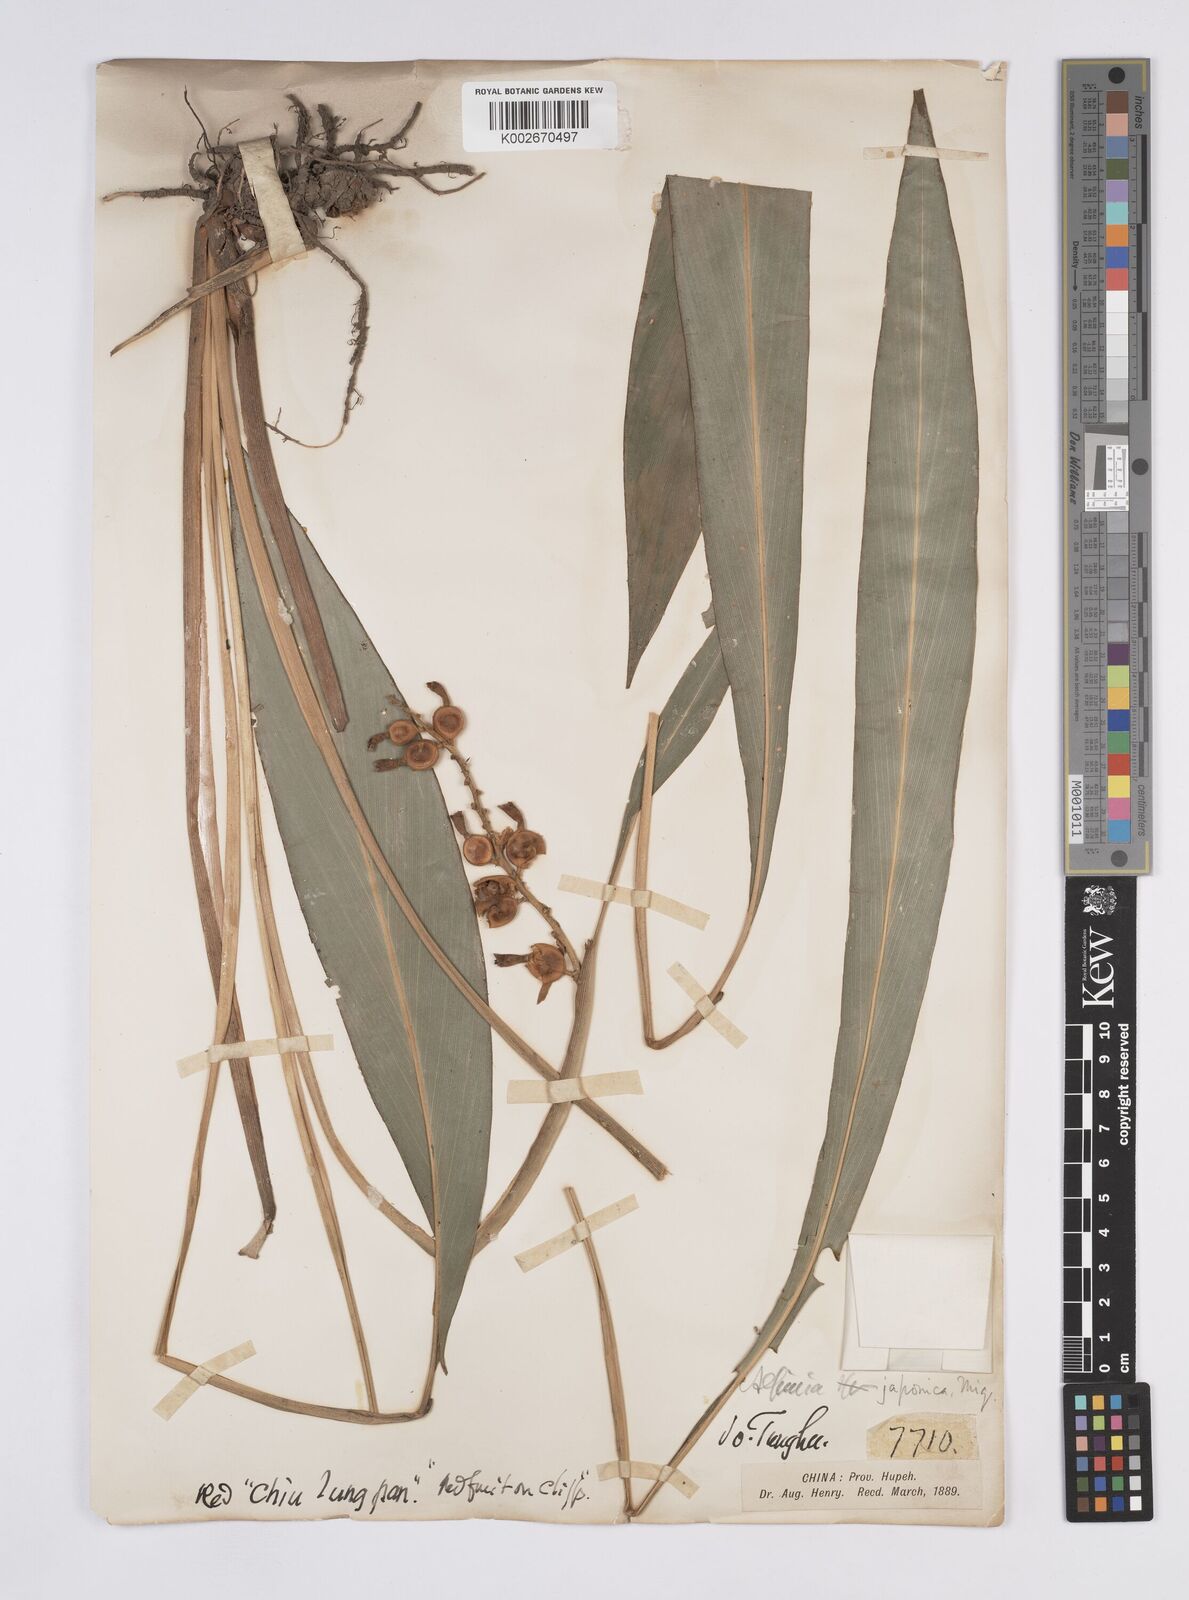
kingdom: Plantae
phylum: Tracheophyta
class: Liliopsida
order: Zingiberales
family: Zingiberaceae
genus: Alpinia
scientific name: Alpinia japonica
